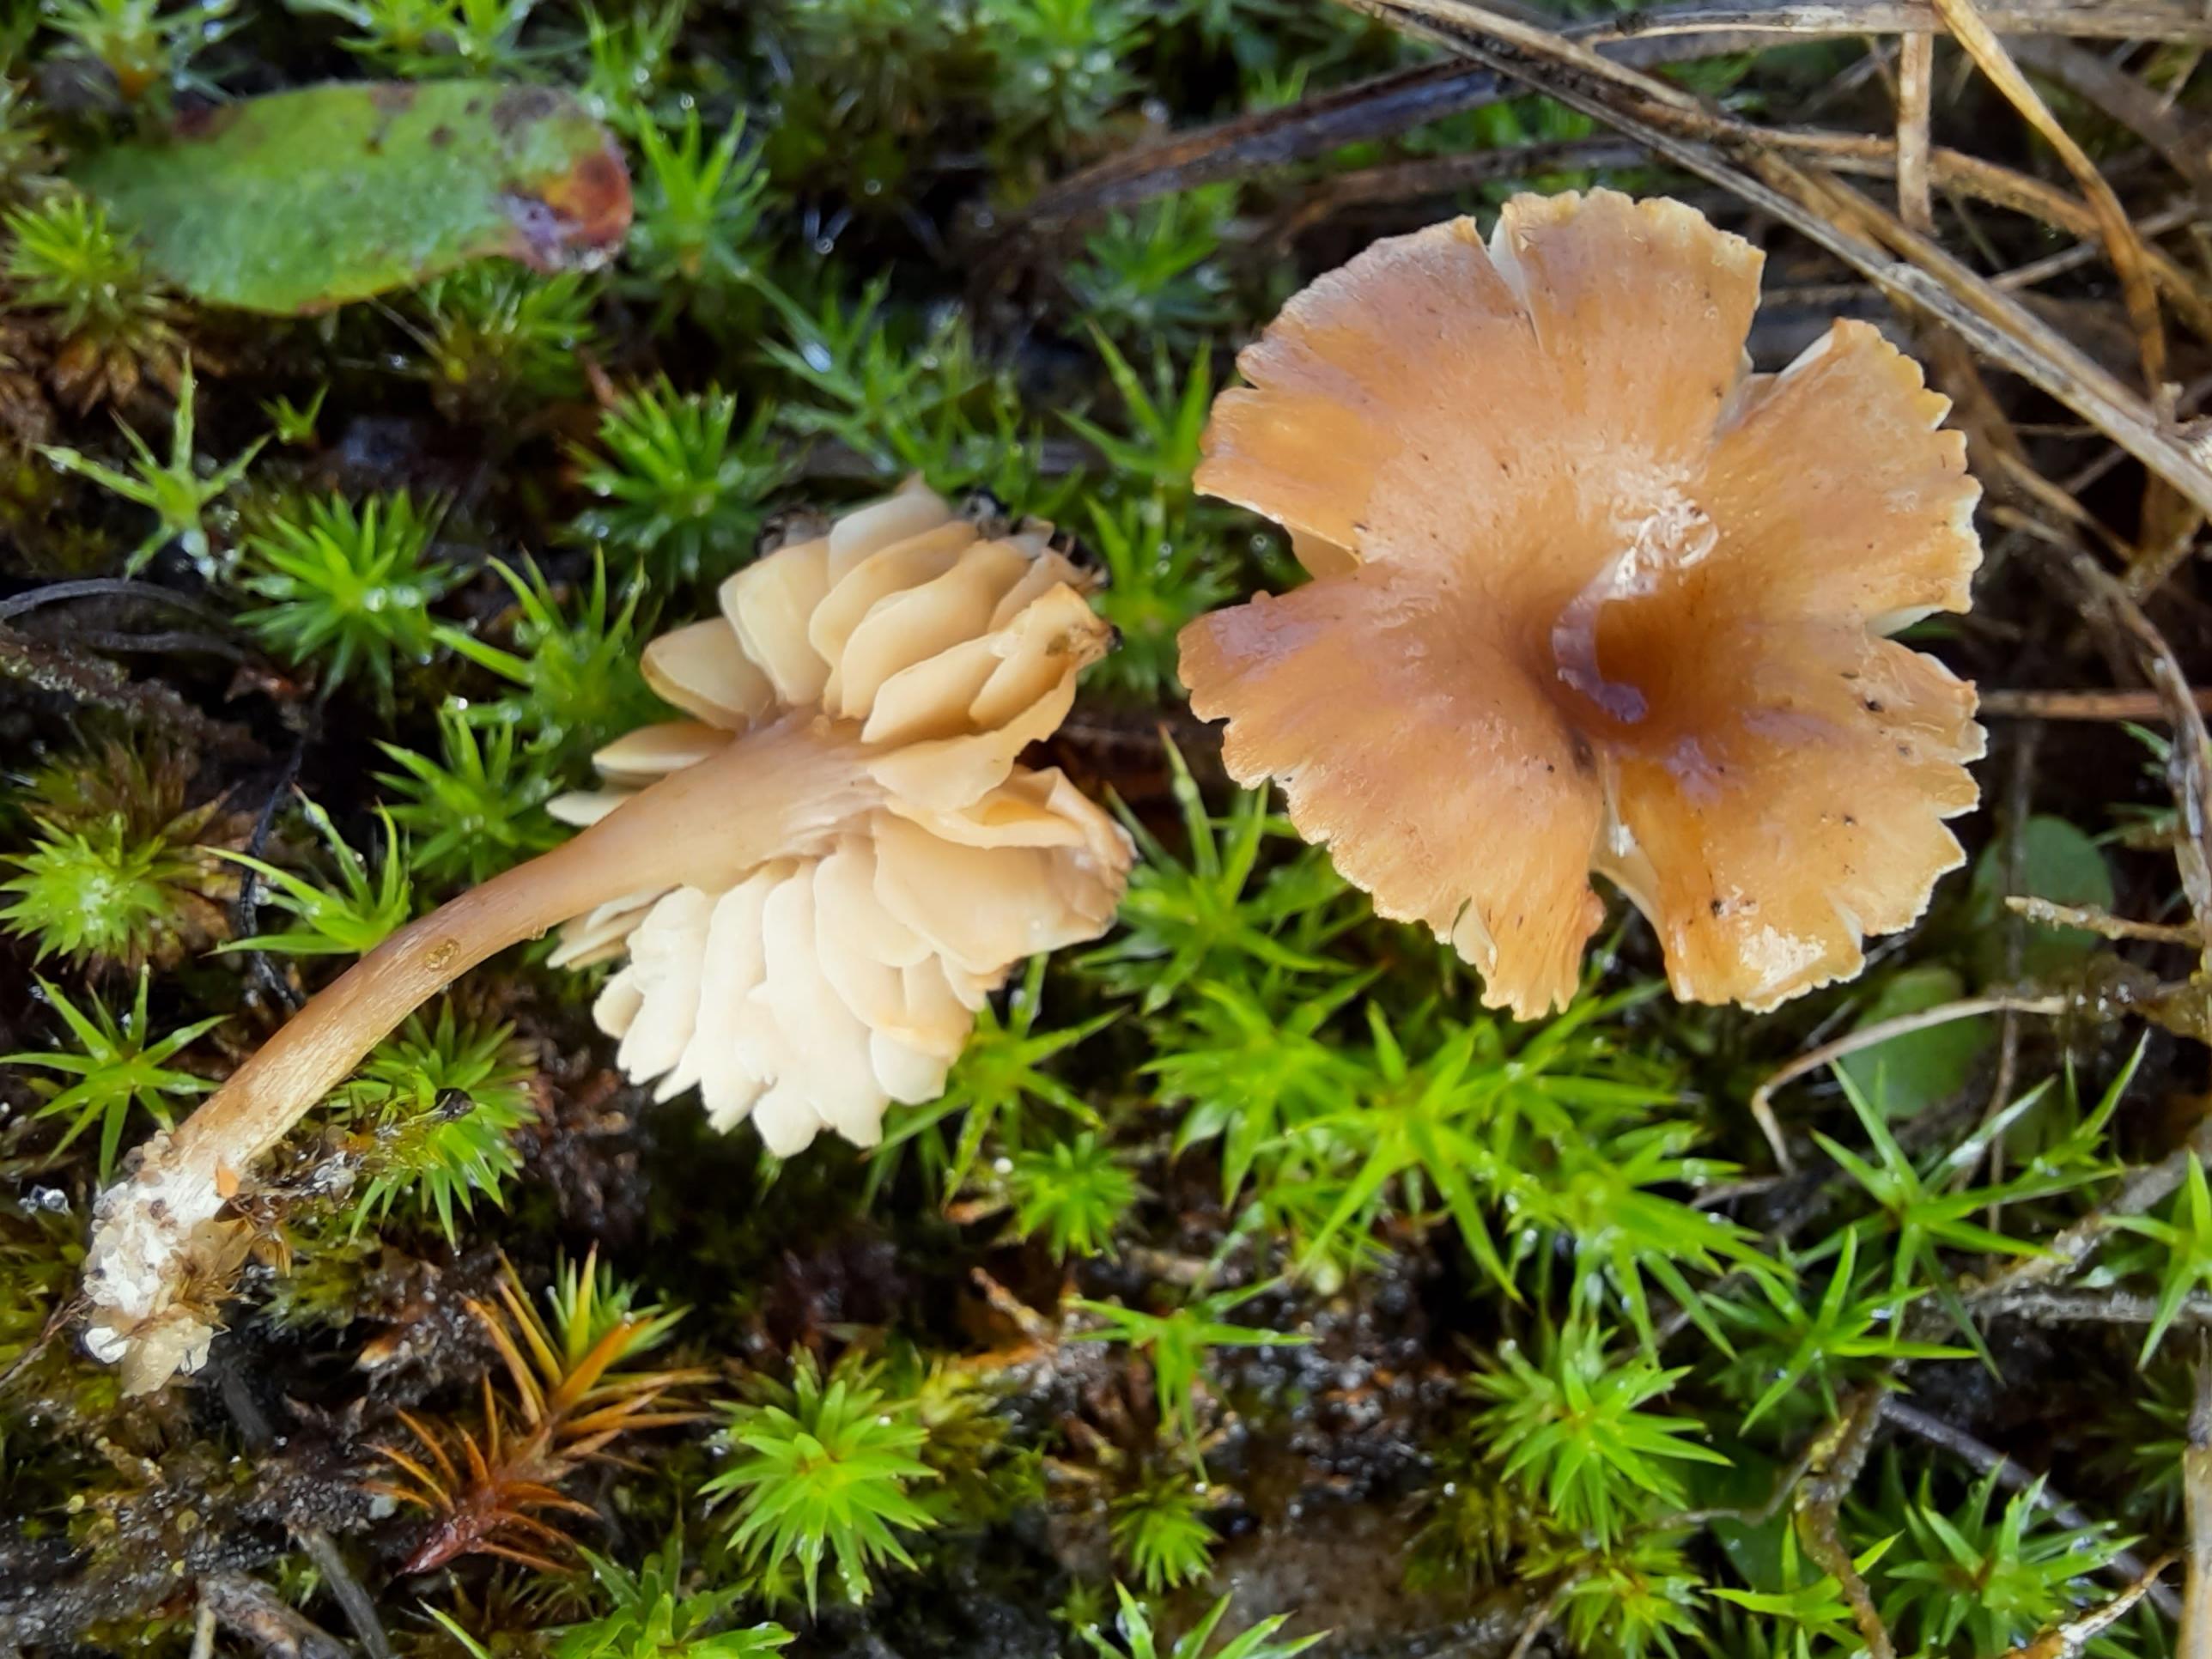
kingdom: Fungi
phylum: Basidiomycota
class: Agaricomycetes
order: Agaricales
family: Callistosporiaceae
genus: Pseudolaccaria
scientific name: Pseudolaccaria pachyphylla
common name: hvælvet tykblad
